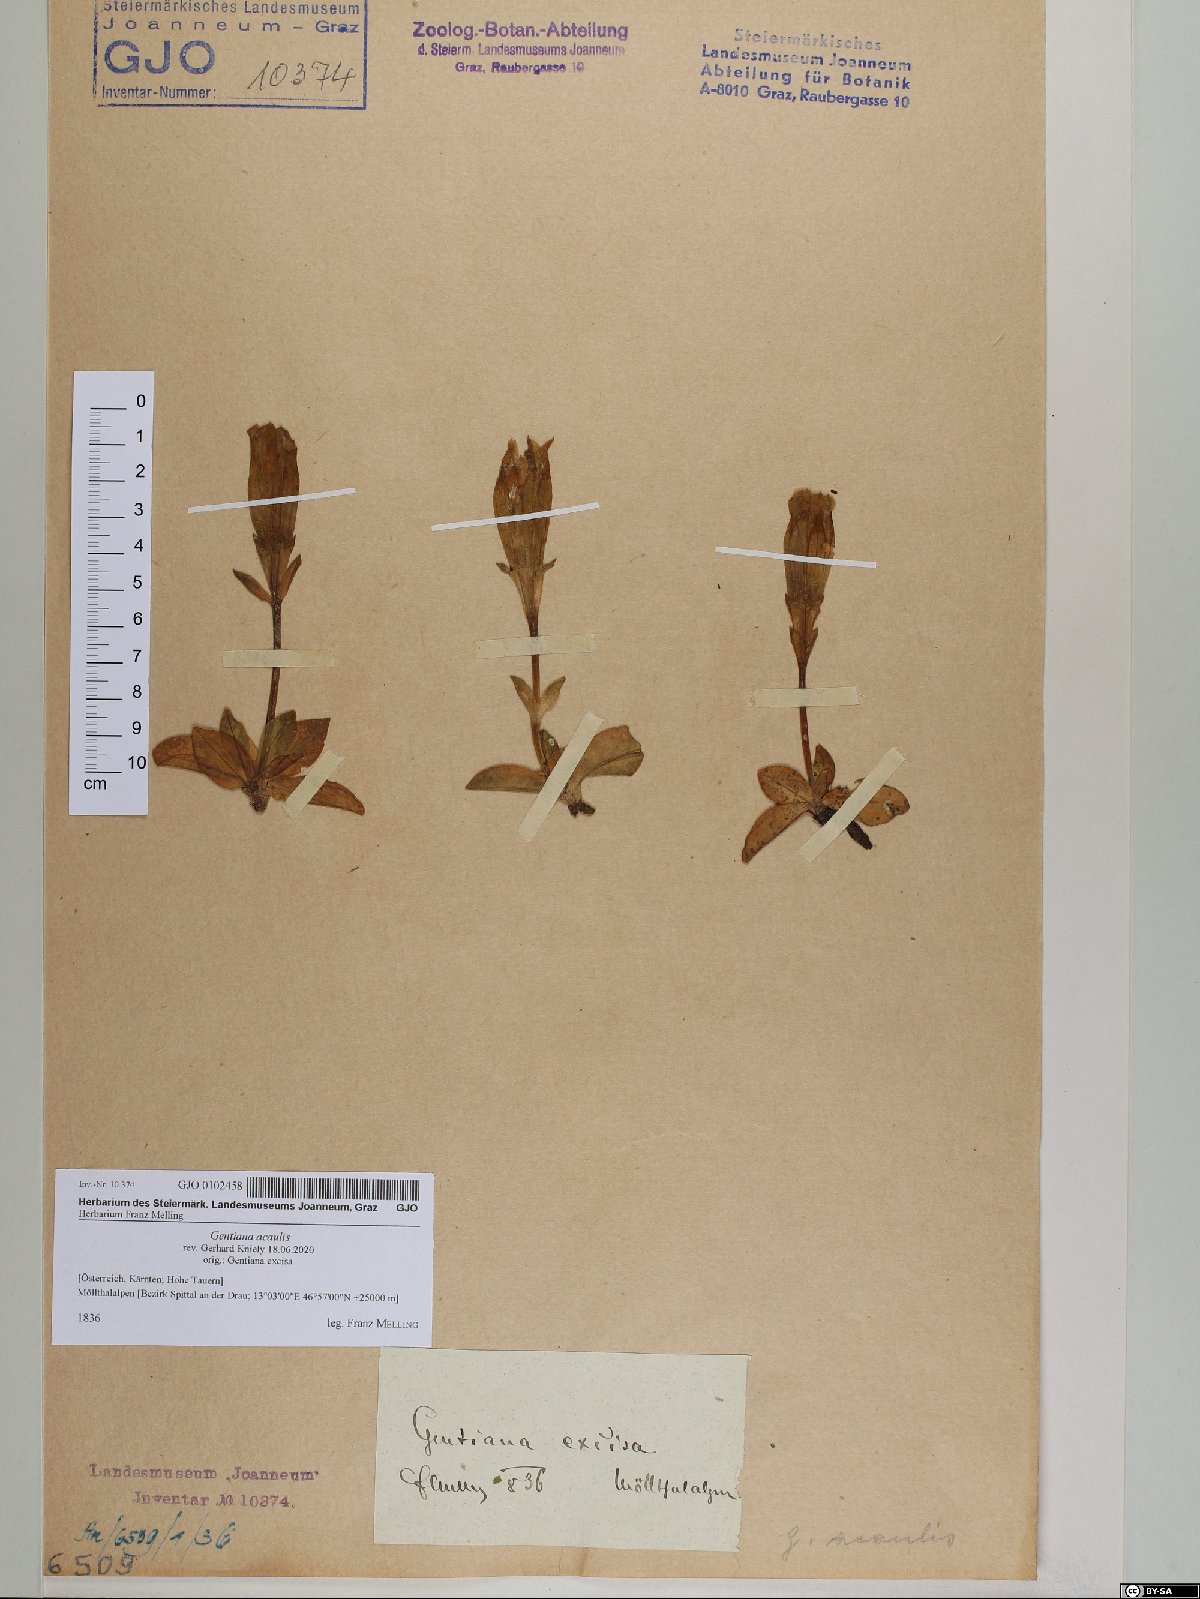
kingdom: Plantae
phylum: Tracheophyta
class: Magnoliopsida
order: Gentianales
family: Gentianaceae
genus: Gentiana
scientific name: Gentiana acaulis
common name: Trumpet gentian
